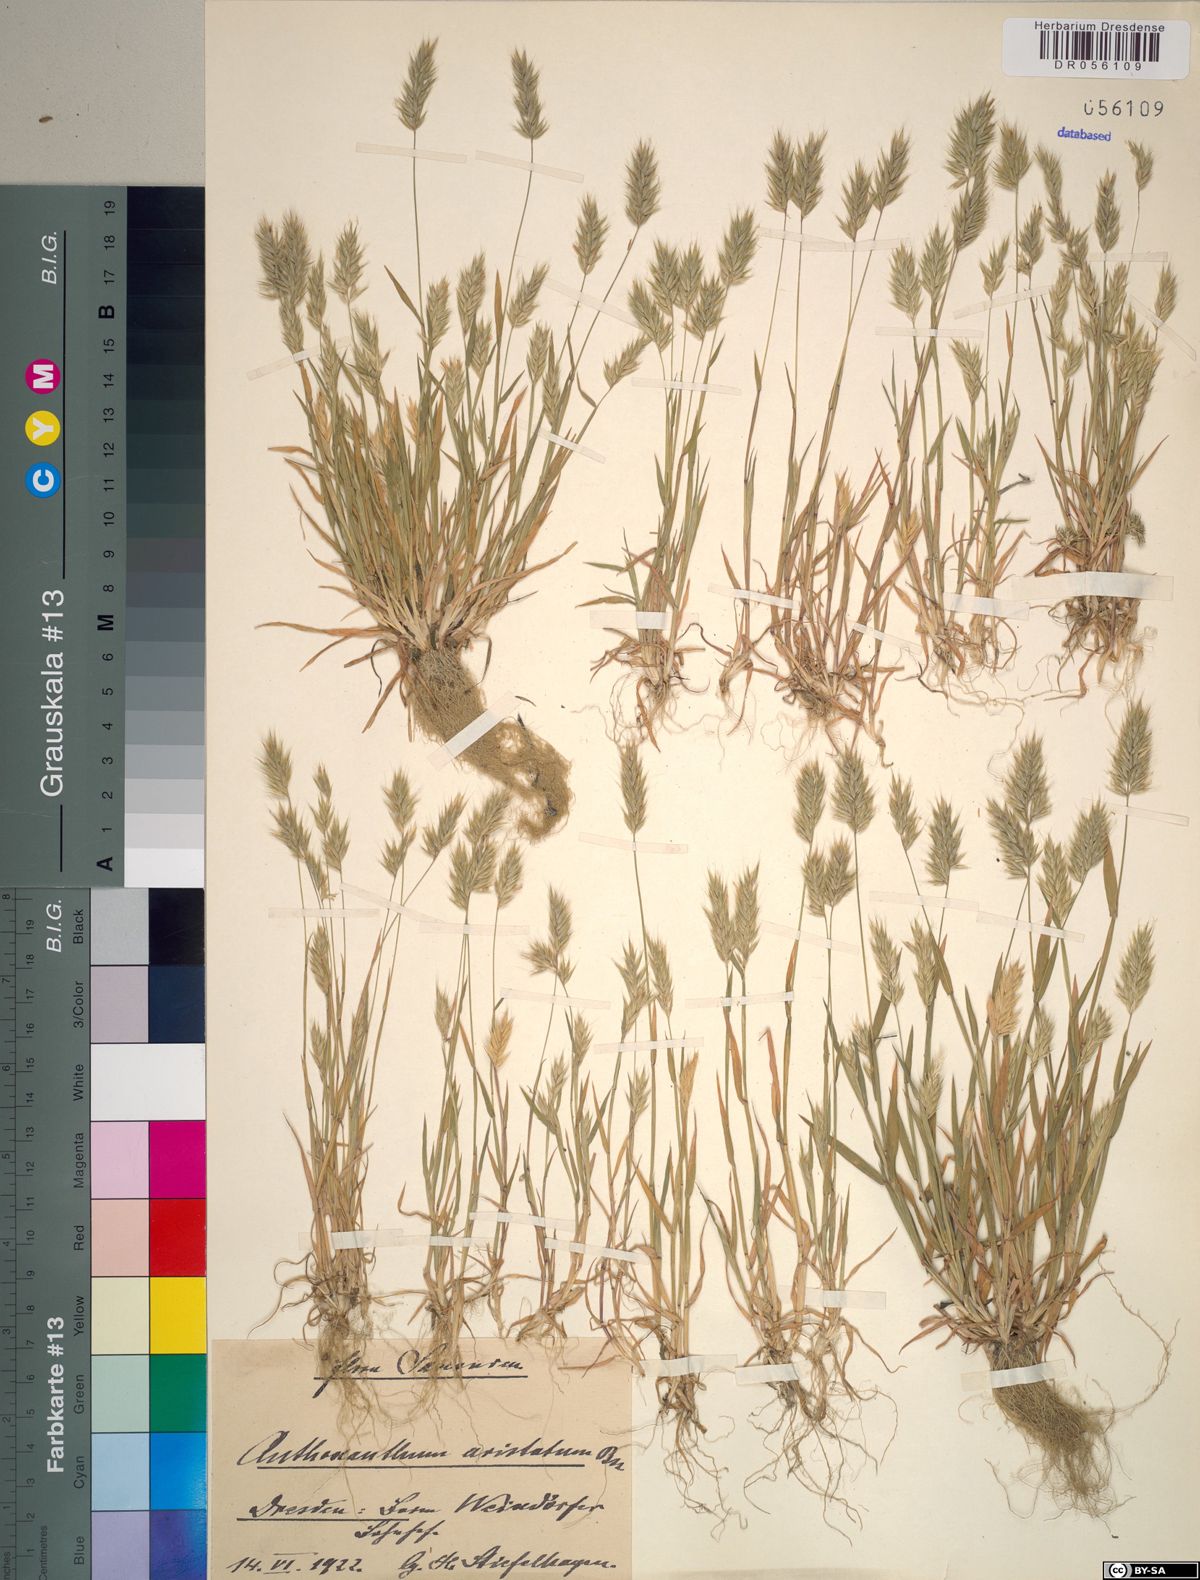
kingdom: Plantae
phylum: Tracheophyta
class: Liliopsida
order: Poales
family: Poaceae
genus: Anthoxanthum
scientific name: Anthoxanthum aristatum
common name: Annual vernal-grass
